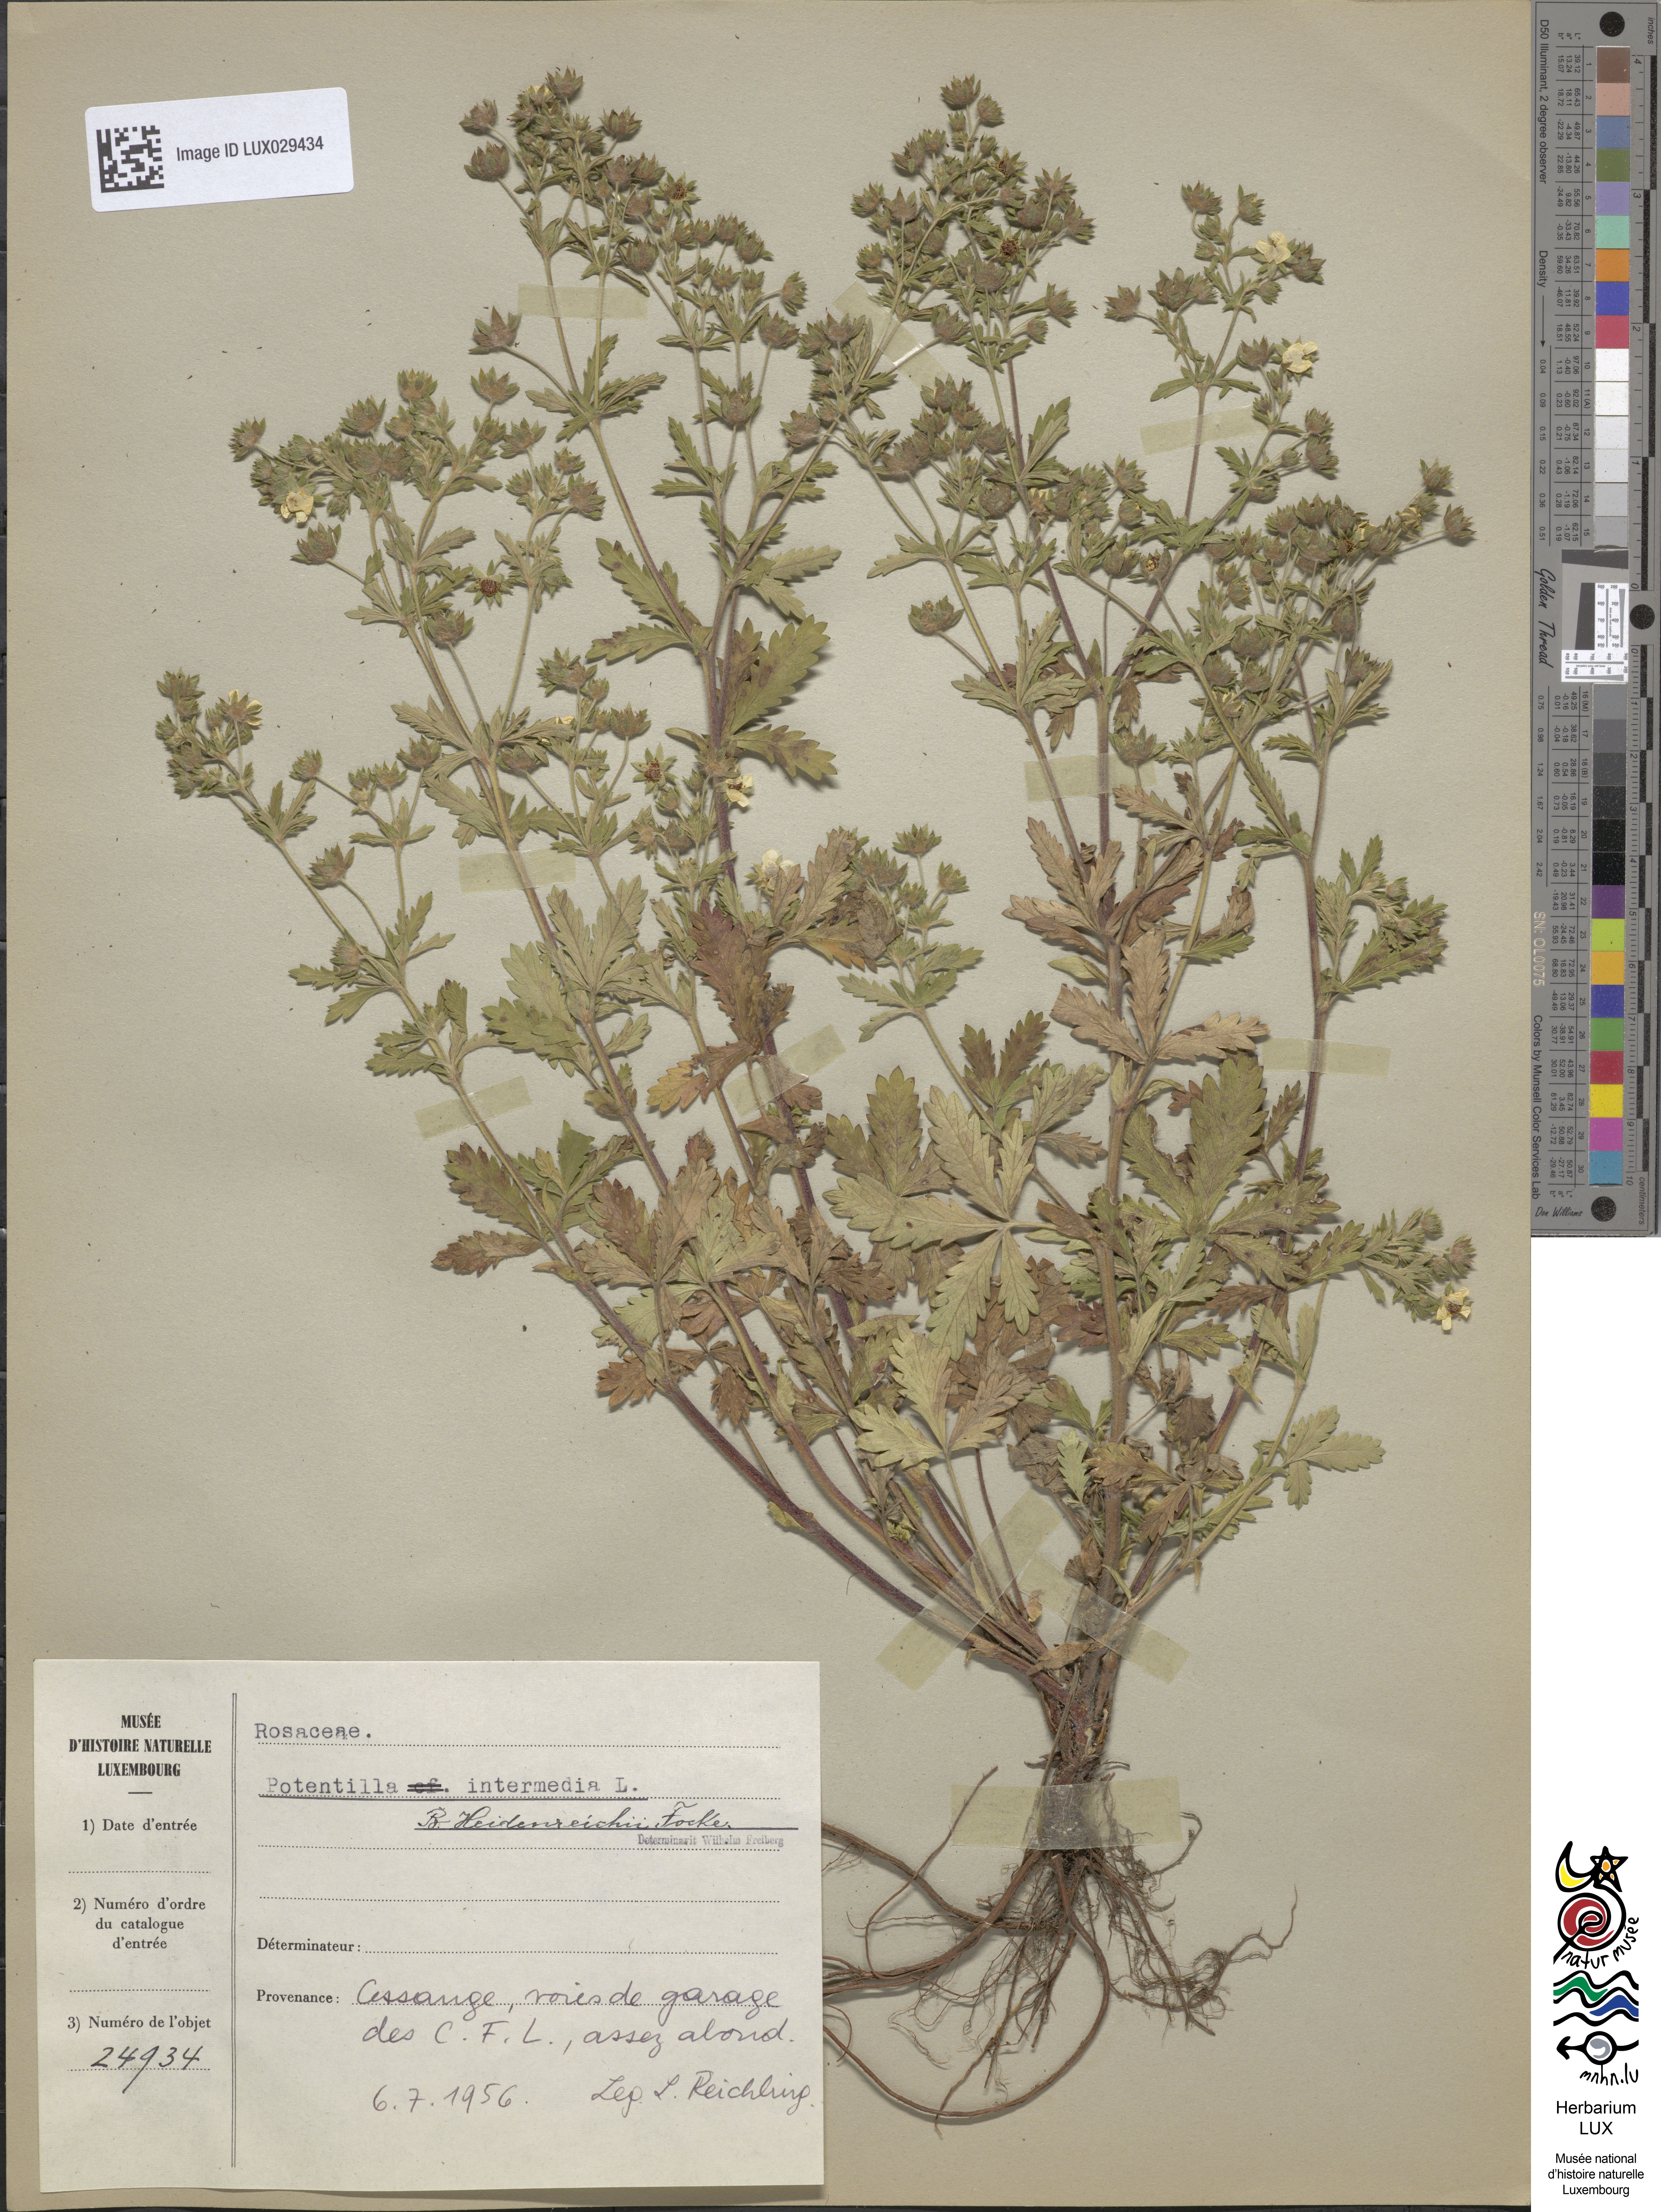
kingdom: Plantae
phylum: Tracheophyta
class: Magnoliopsida
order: Rosales
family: Rosaceae
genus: Potentilla
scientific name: Potentilla intermedia
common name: Downy cinquefoil
